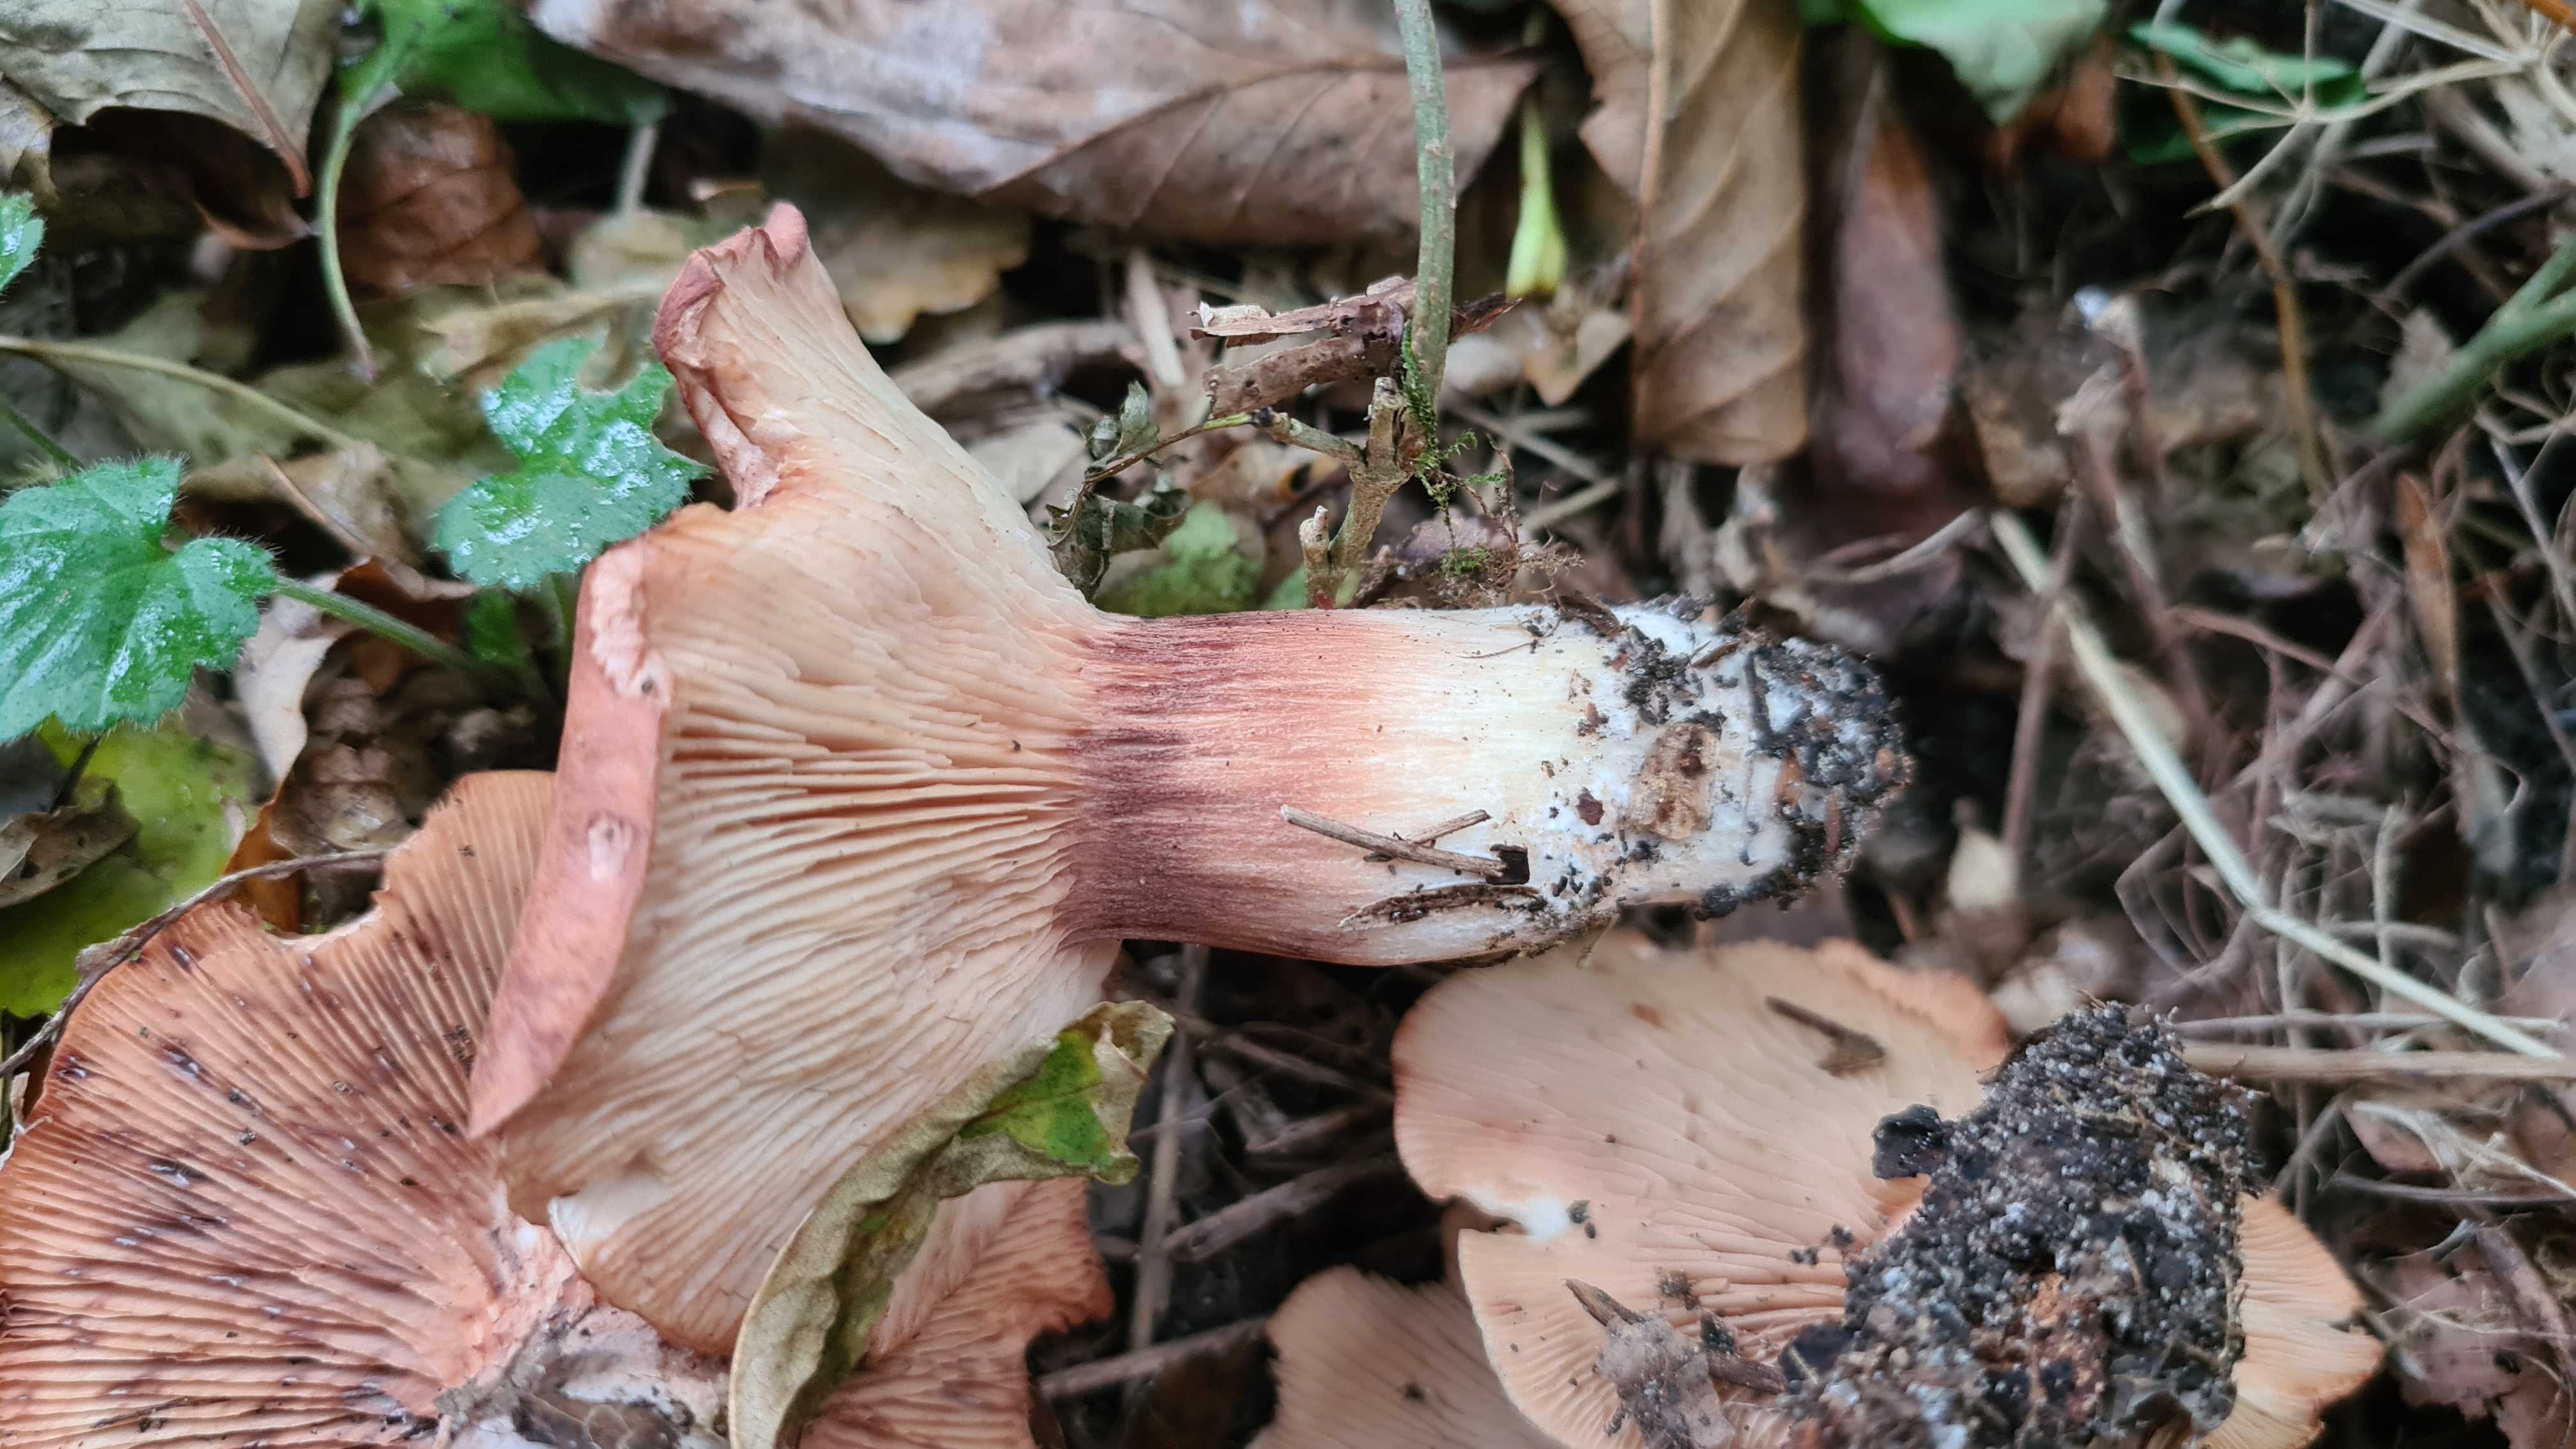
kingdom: Fungi
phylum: Basidiomycota
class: Agaricomycetes
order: Agaricales
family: Entolomataceae
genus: Clitopilus
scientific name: Clitopilus geminus
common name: kødfarvet troldhat
